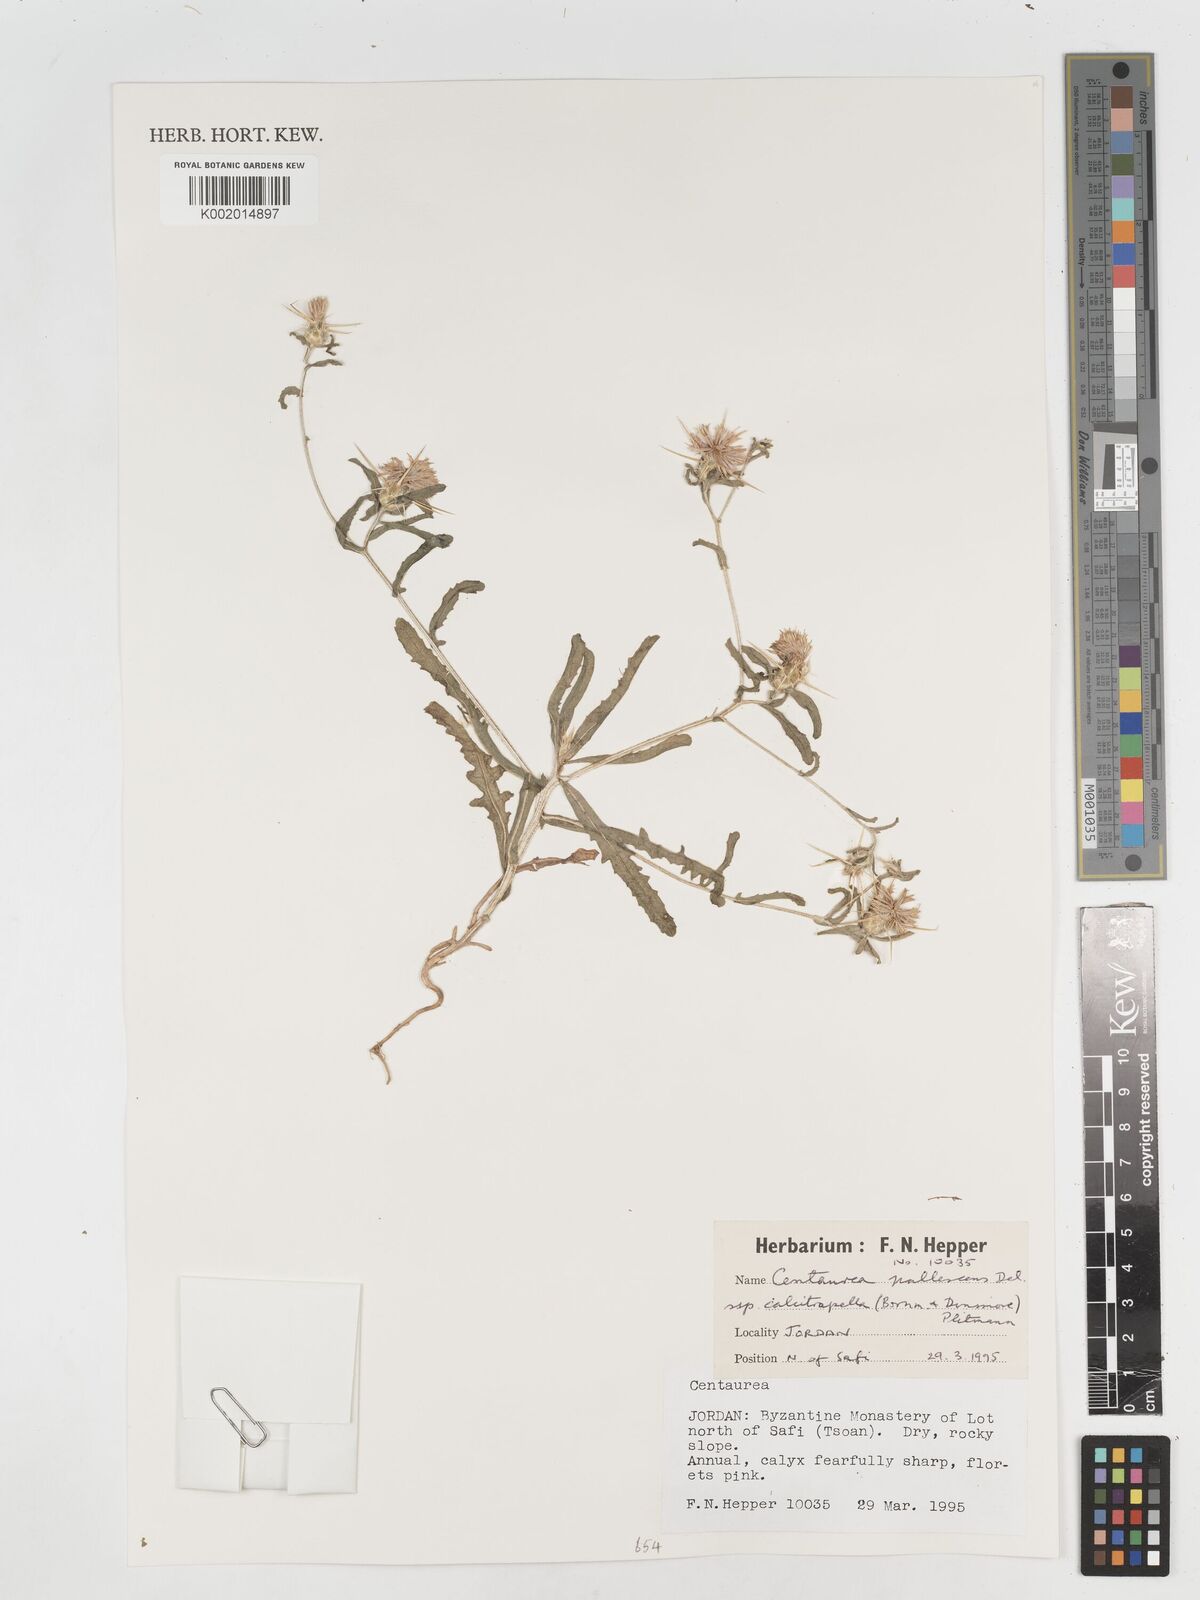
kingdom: Plantae
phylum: Tracheophyta
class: Magnoliopsida
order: Asterales
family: Asteraceae
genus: Centaurea
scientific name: Centaurea pallescens
